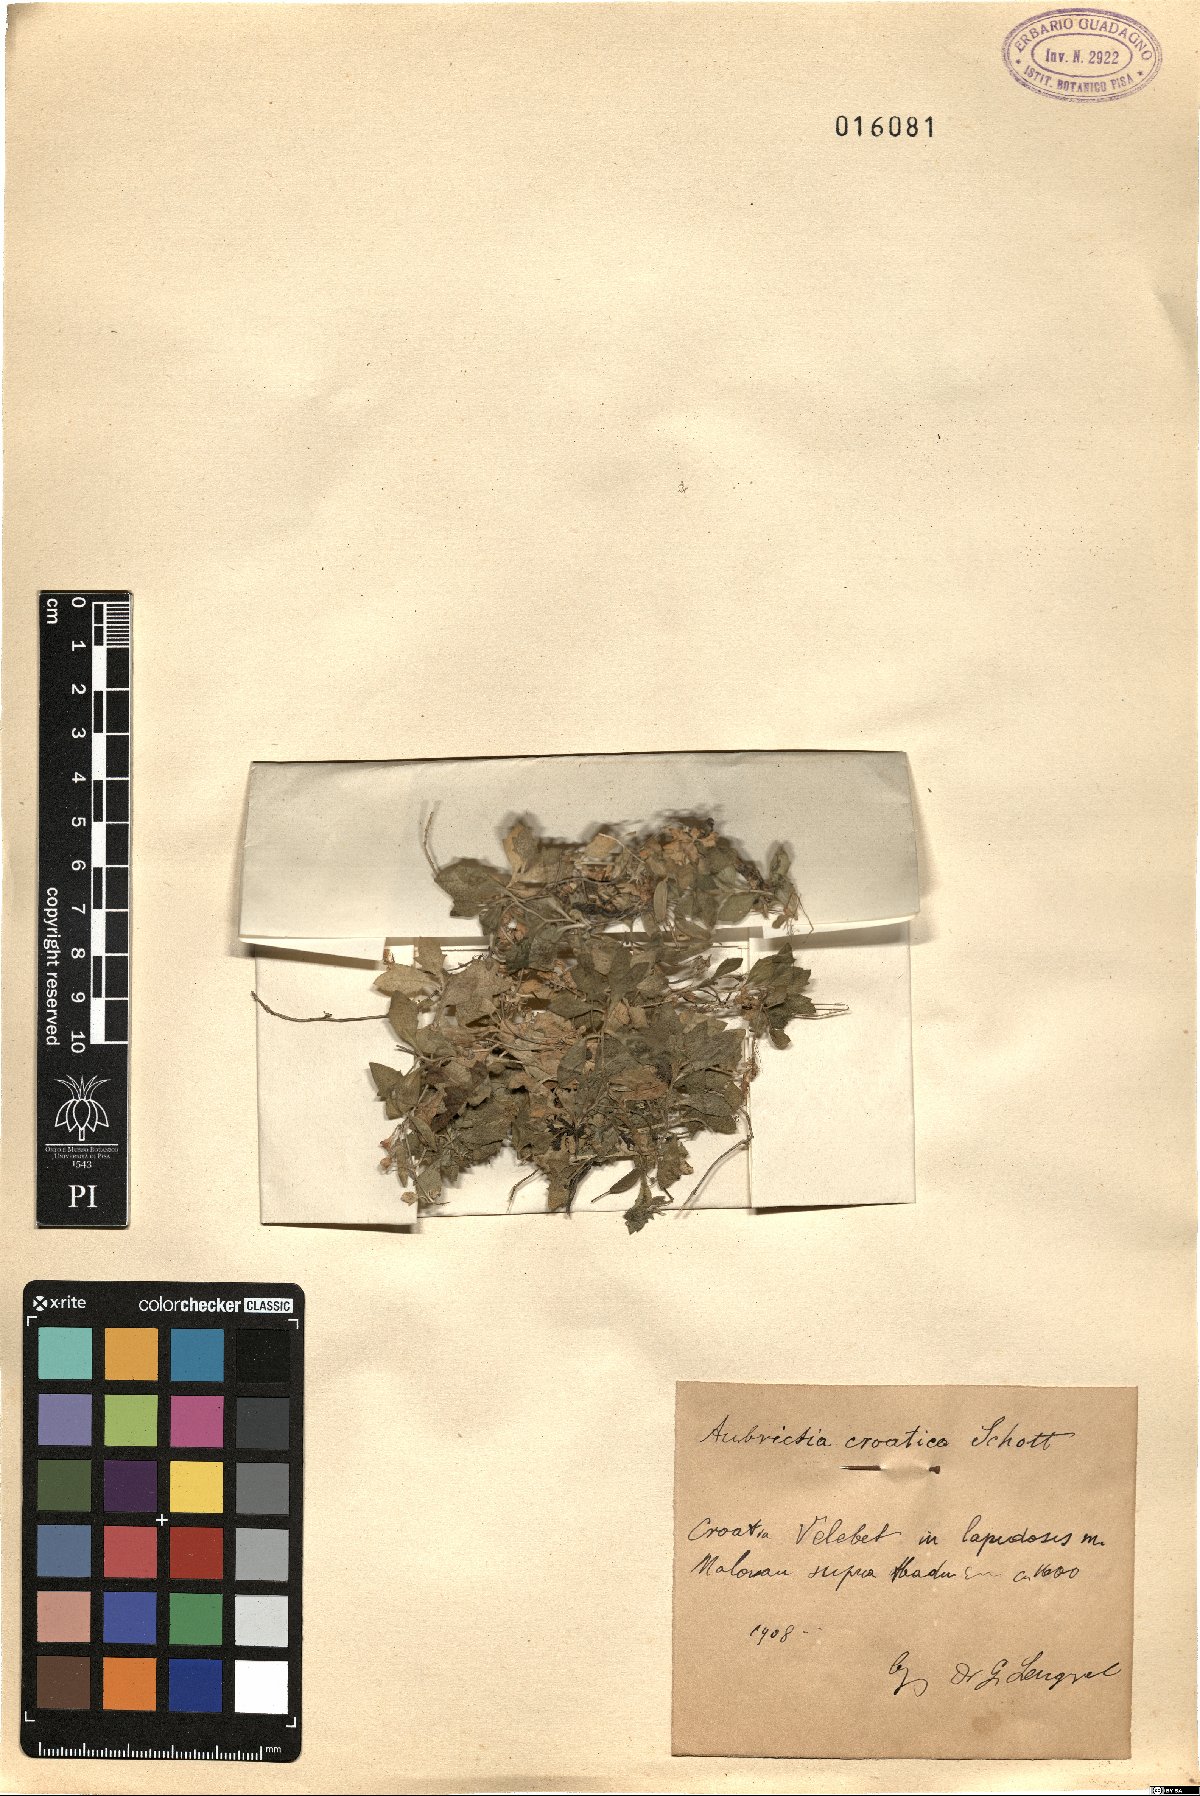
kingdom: Plantae
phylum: Tracheophyta
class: Magnoliopsida
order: Brassicales
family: Brassicaceae
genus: Aubrieta
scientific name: Aubrieta columnae
